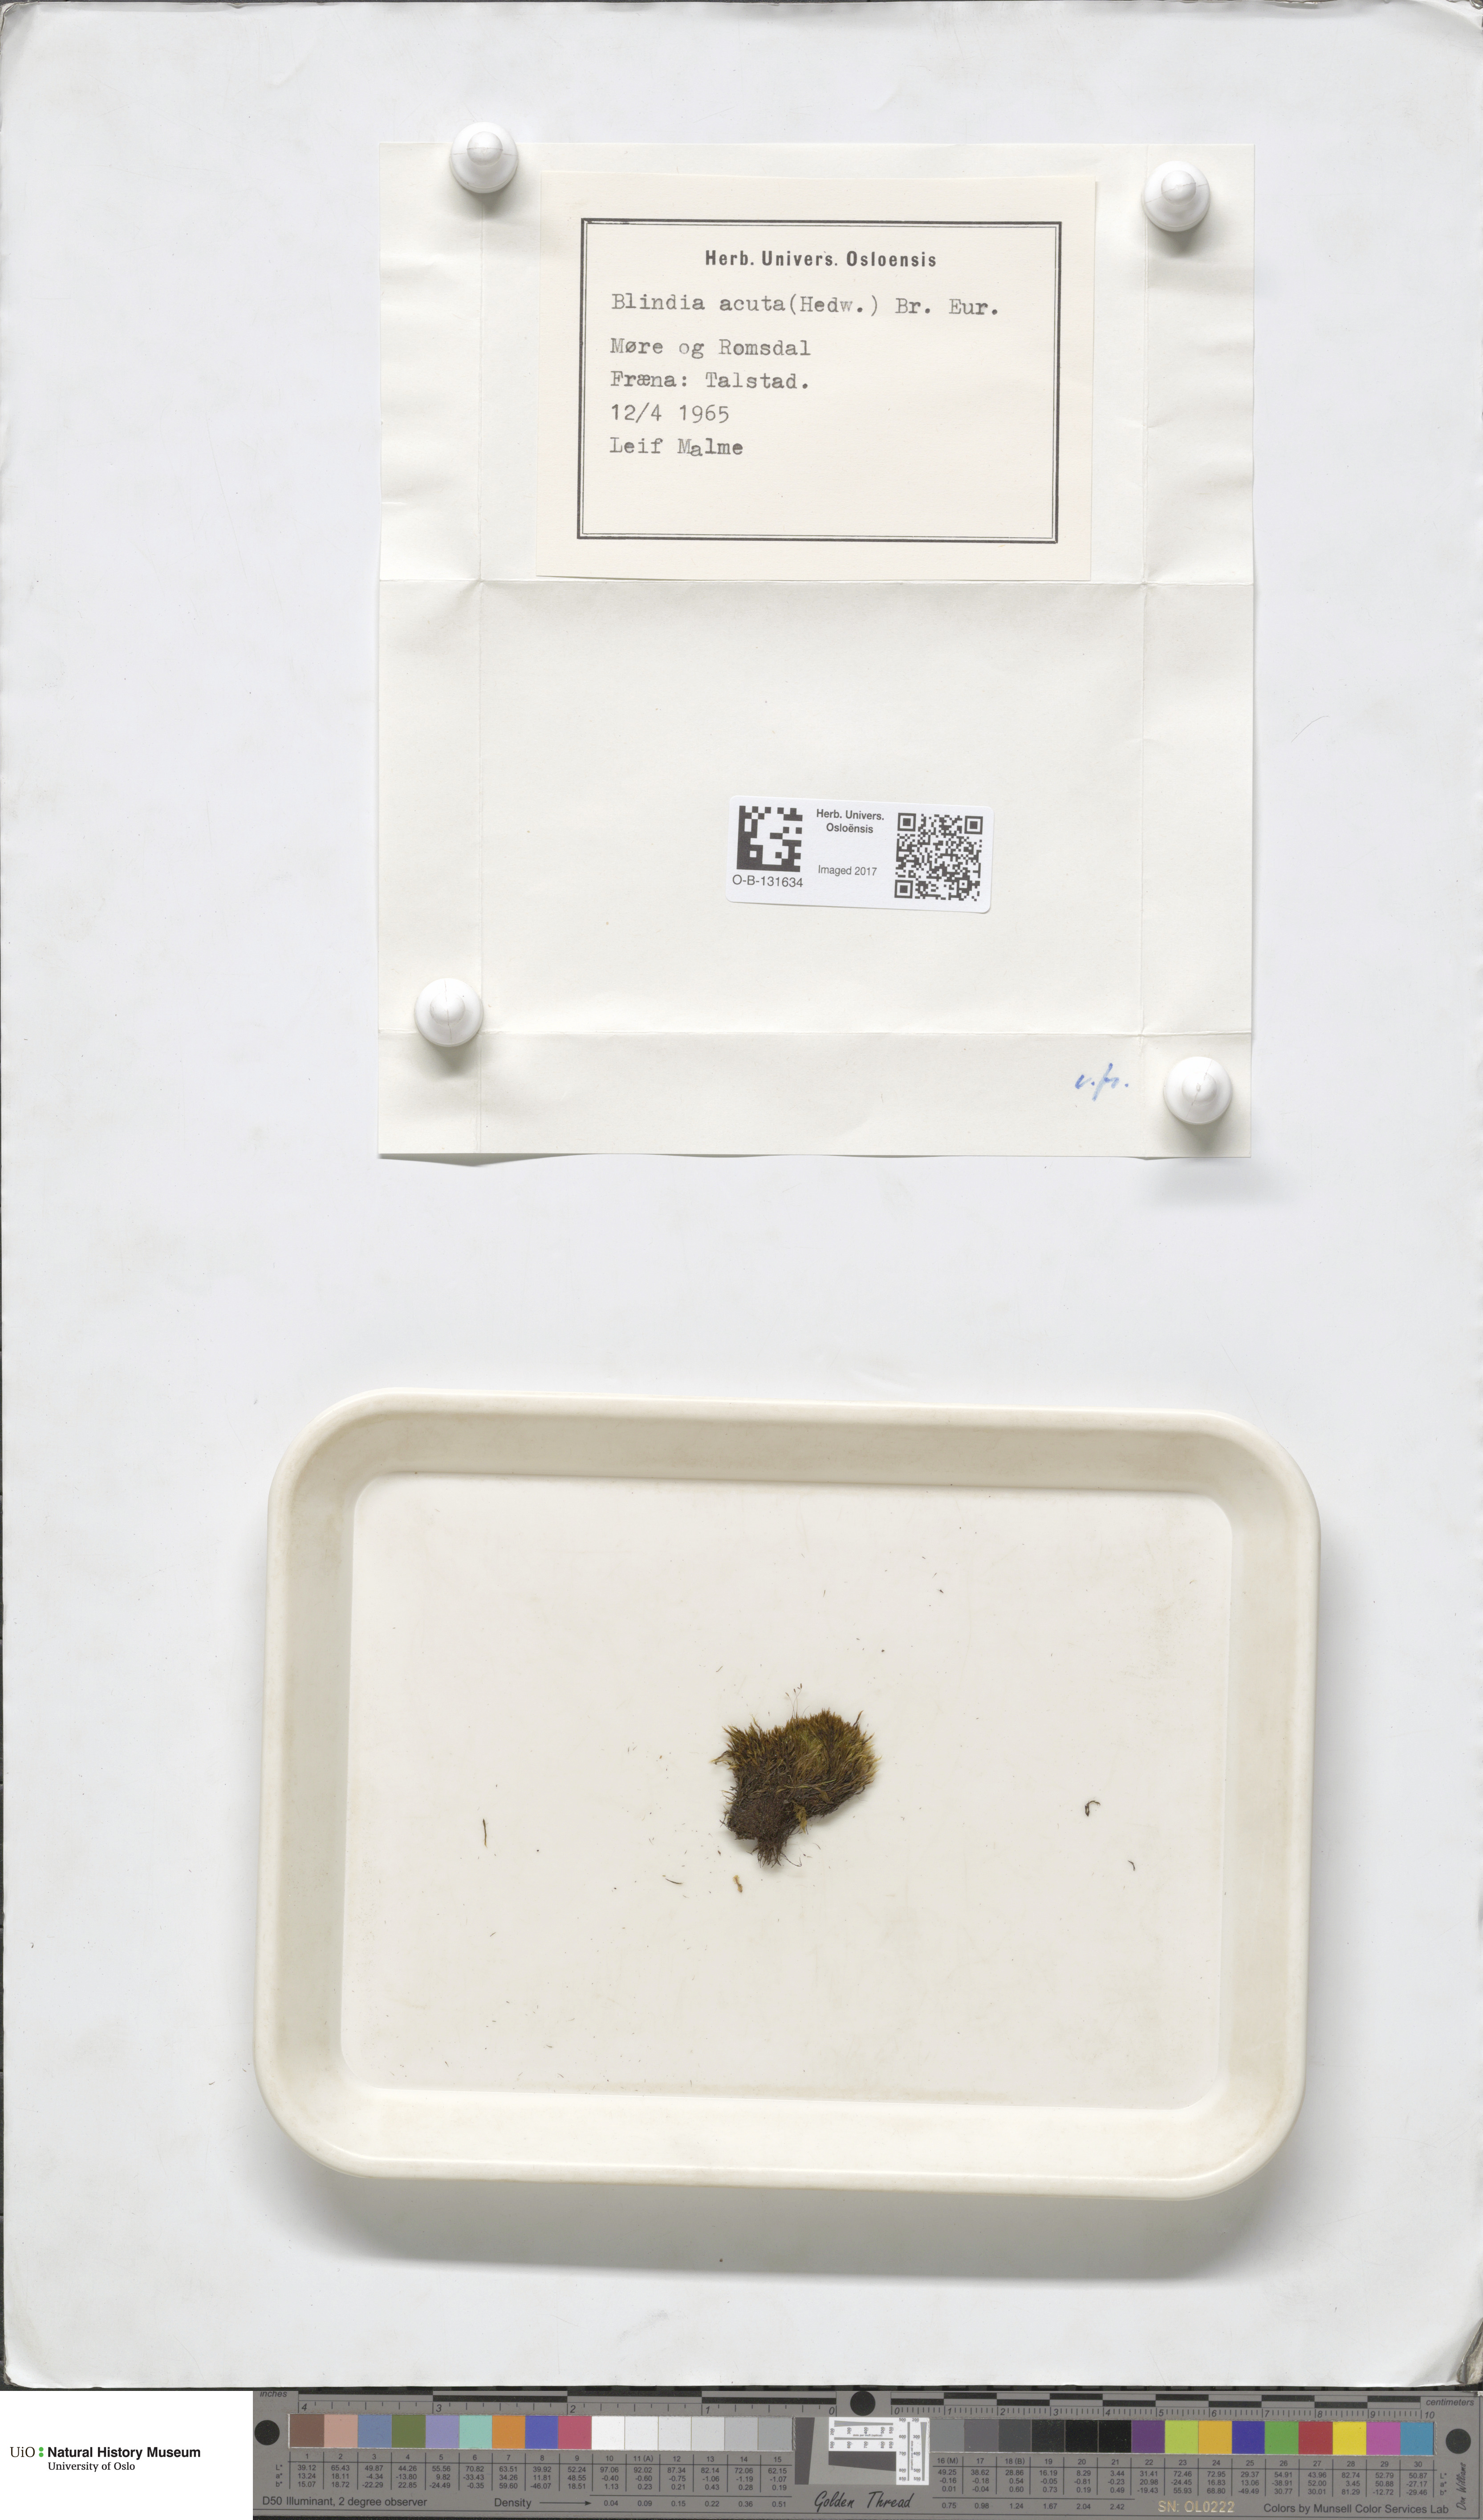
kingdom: Plantae
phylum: Bryophyta
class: Bryopsida
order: Grimmiales
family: Seligeriaceae
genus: Blindia
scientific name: Blindia acuta
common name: Sharp-leaved blind's moss
